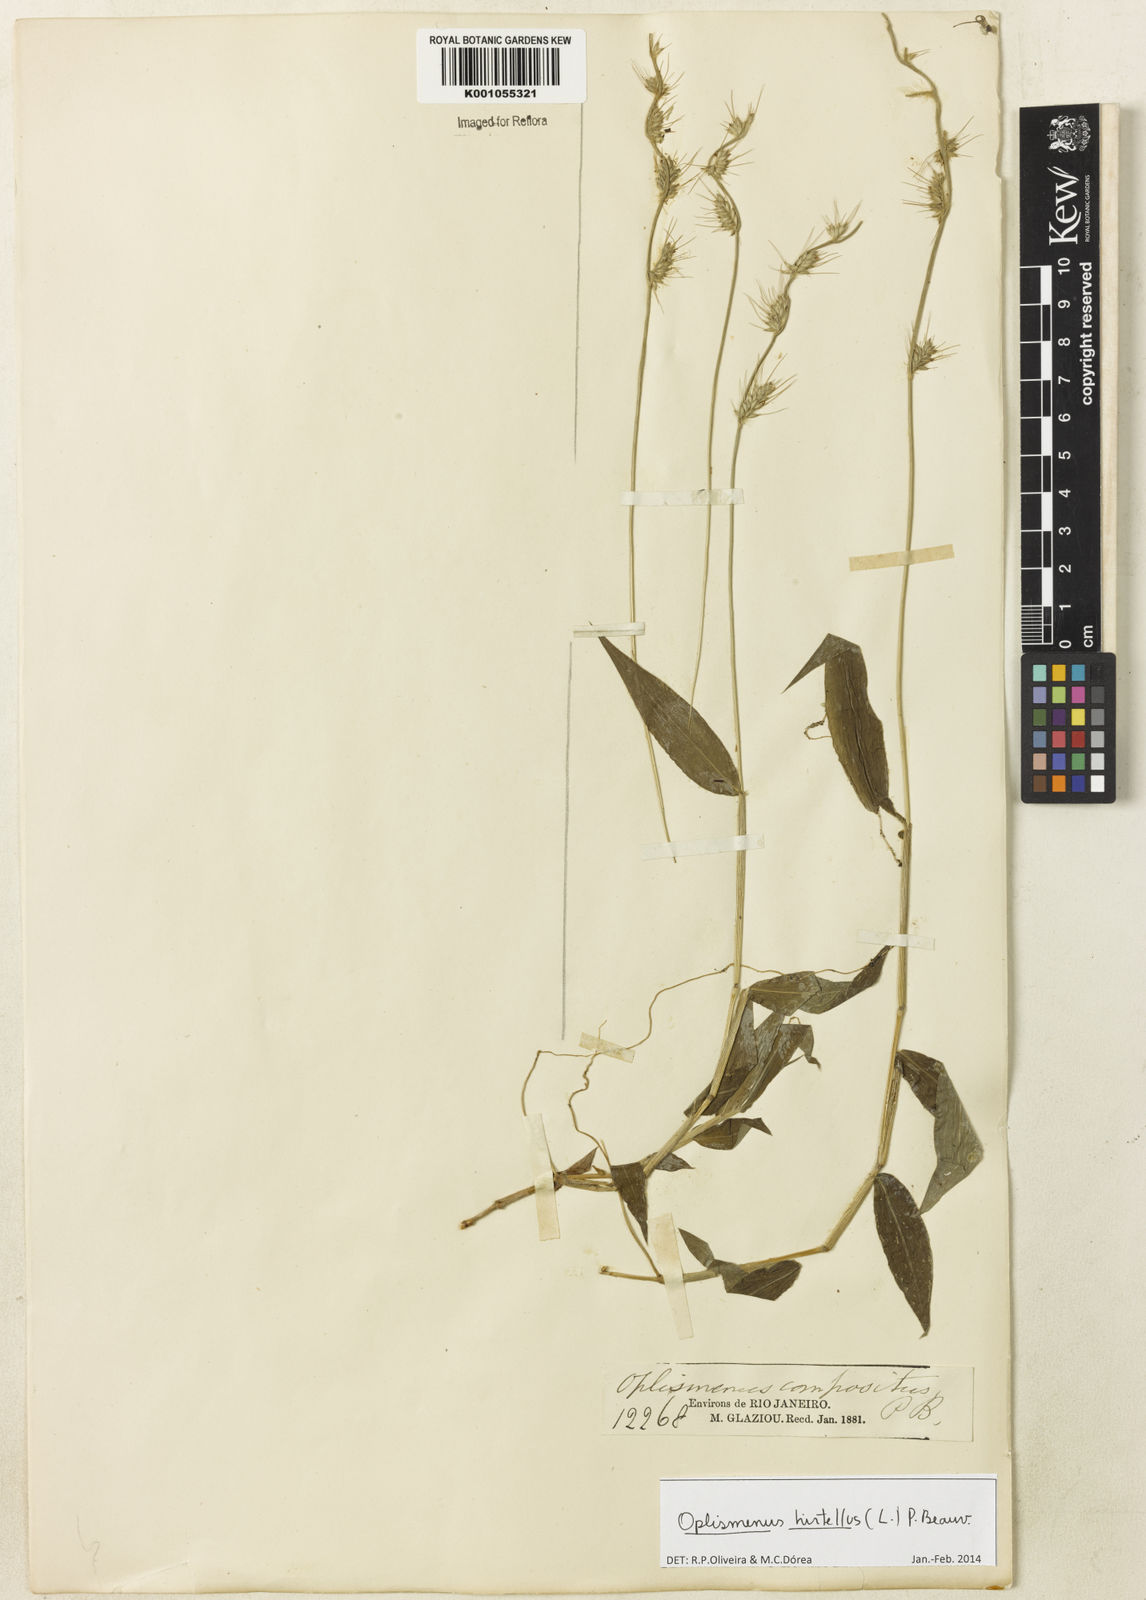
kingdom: Plantae
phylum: Tracheophyta
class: Liliopsida
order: Poales
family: Poaceae
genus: Oplismenus
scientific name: Oplismenus hirtellus
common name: Basketgrass
